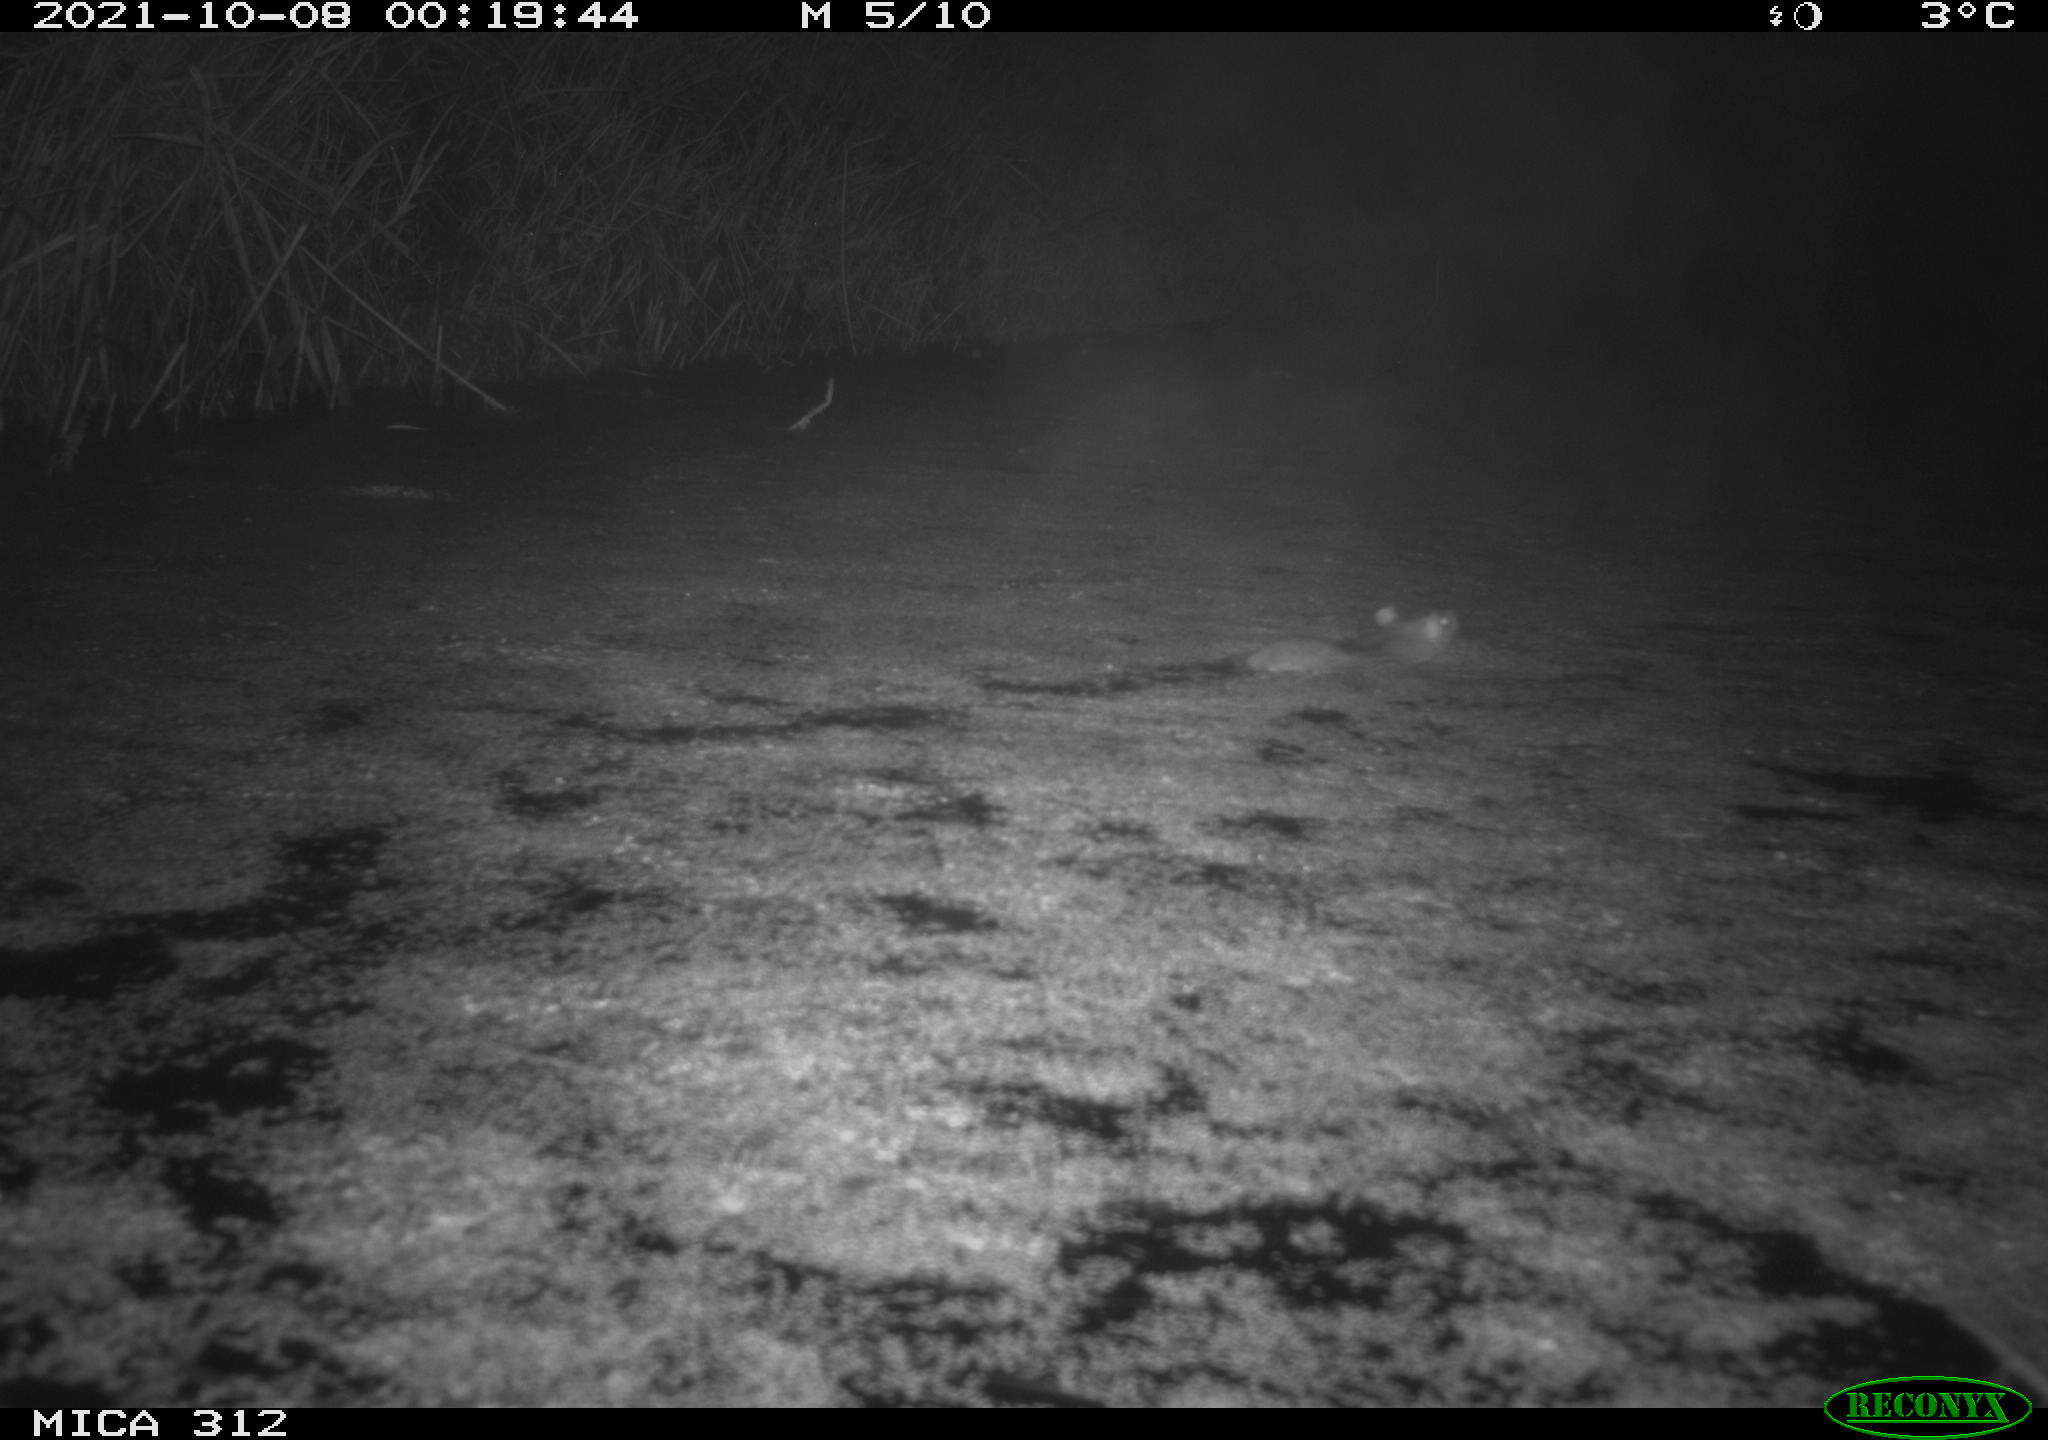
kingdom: Animalia
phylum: Chordata
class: Mammalia
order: Rodentia
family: Muridae
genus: Rattus
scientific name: Rattus norvegicus
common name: Brown rat
